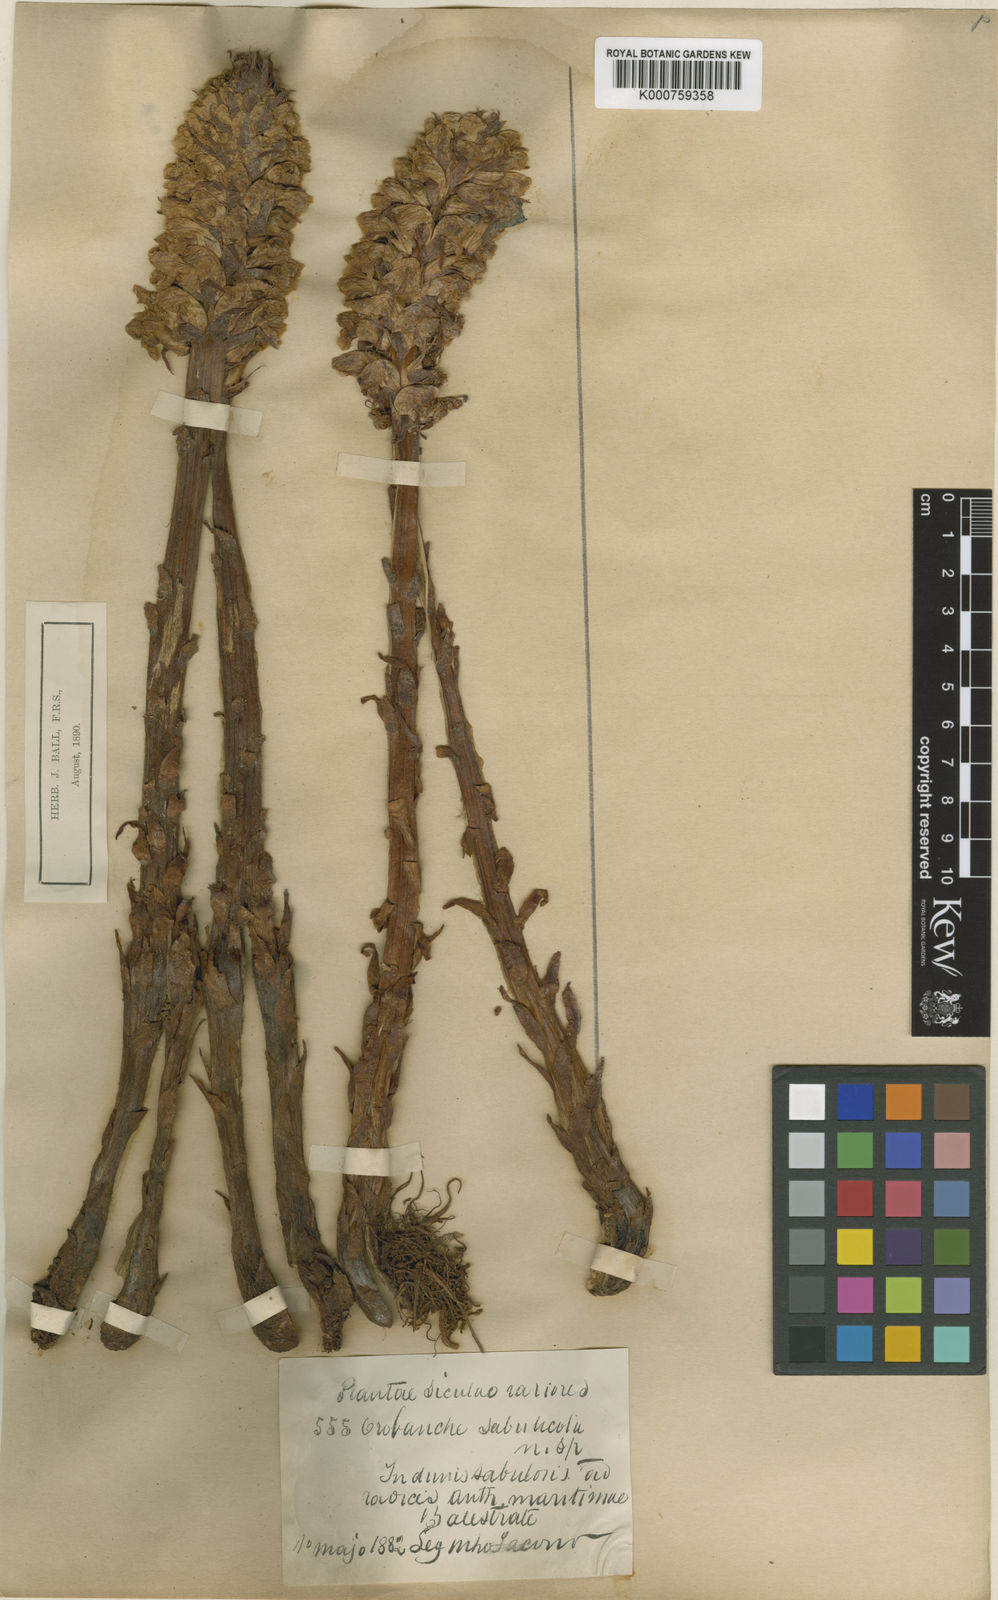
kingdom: Plantae
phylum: Tracheophyta
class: Magnoliopsida
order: Lamiales
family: Orobanchaceae
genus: Orobanche
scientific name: Orobanche coerulescens
